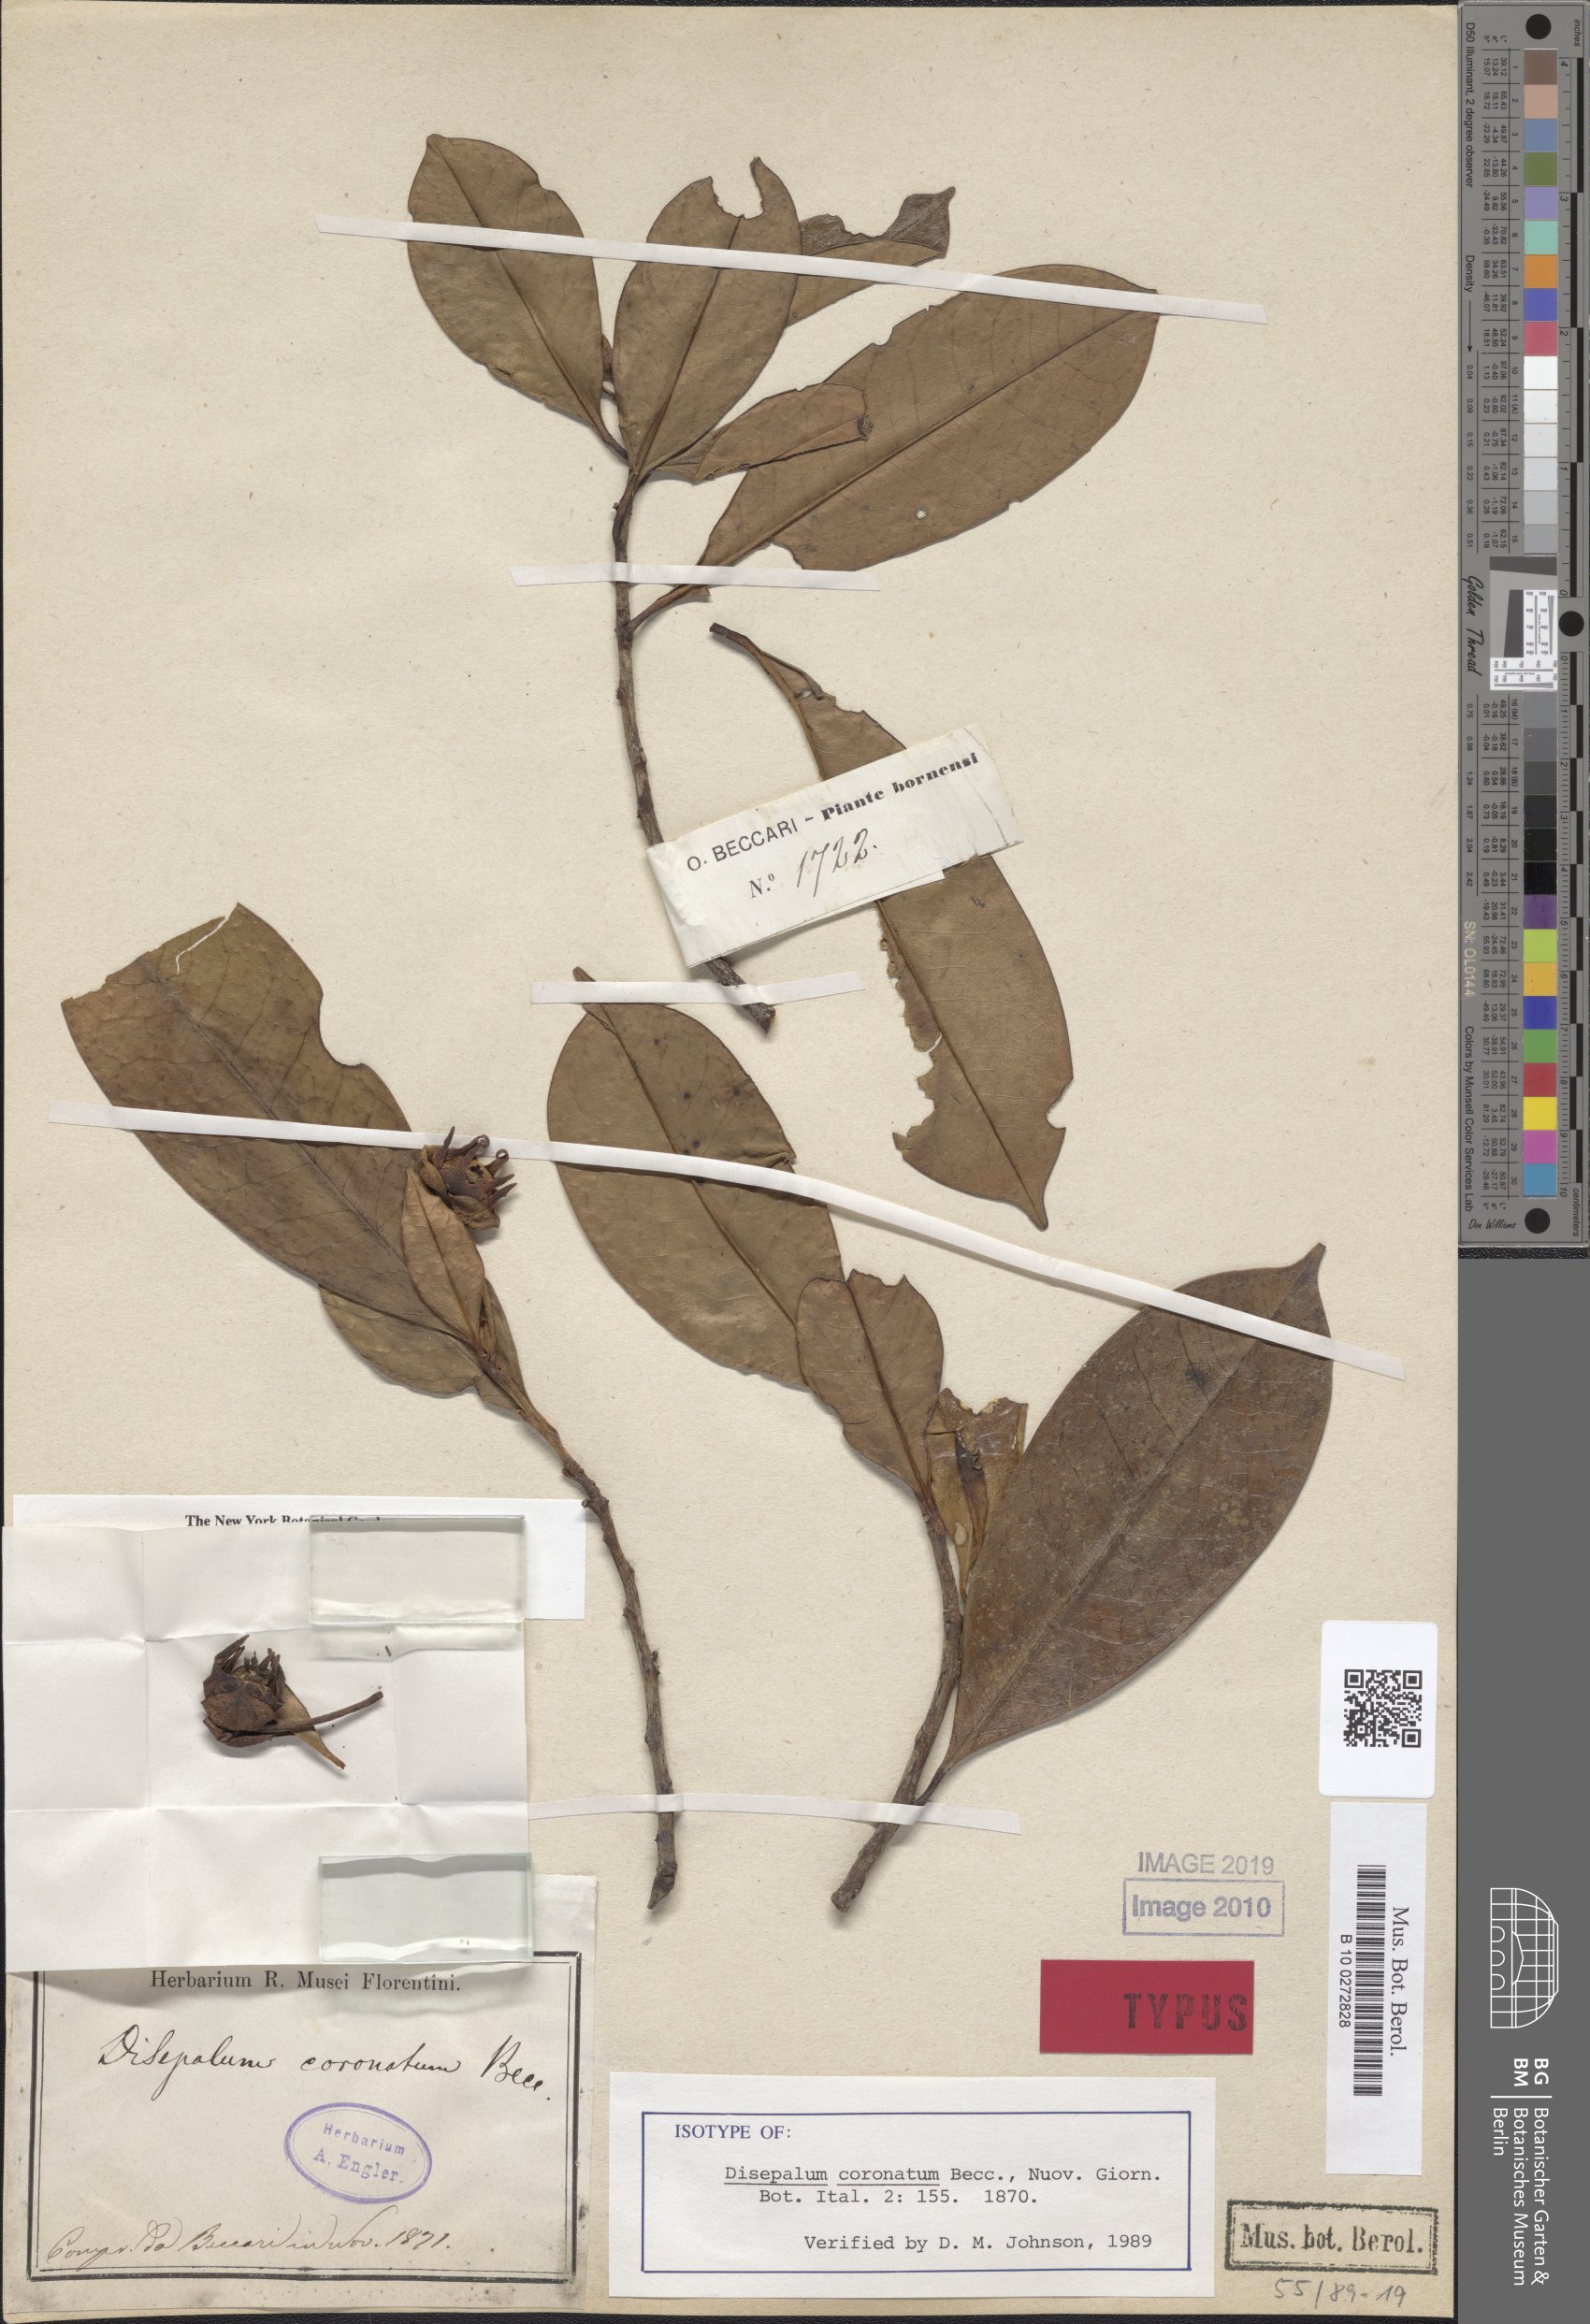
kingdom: Plantae
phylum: Tracheophyta
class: Magnoliopsida
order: Magnoliales
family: Annonaceae
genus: Disepalum
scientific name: Disepalum coronatum
